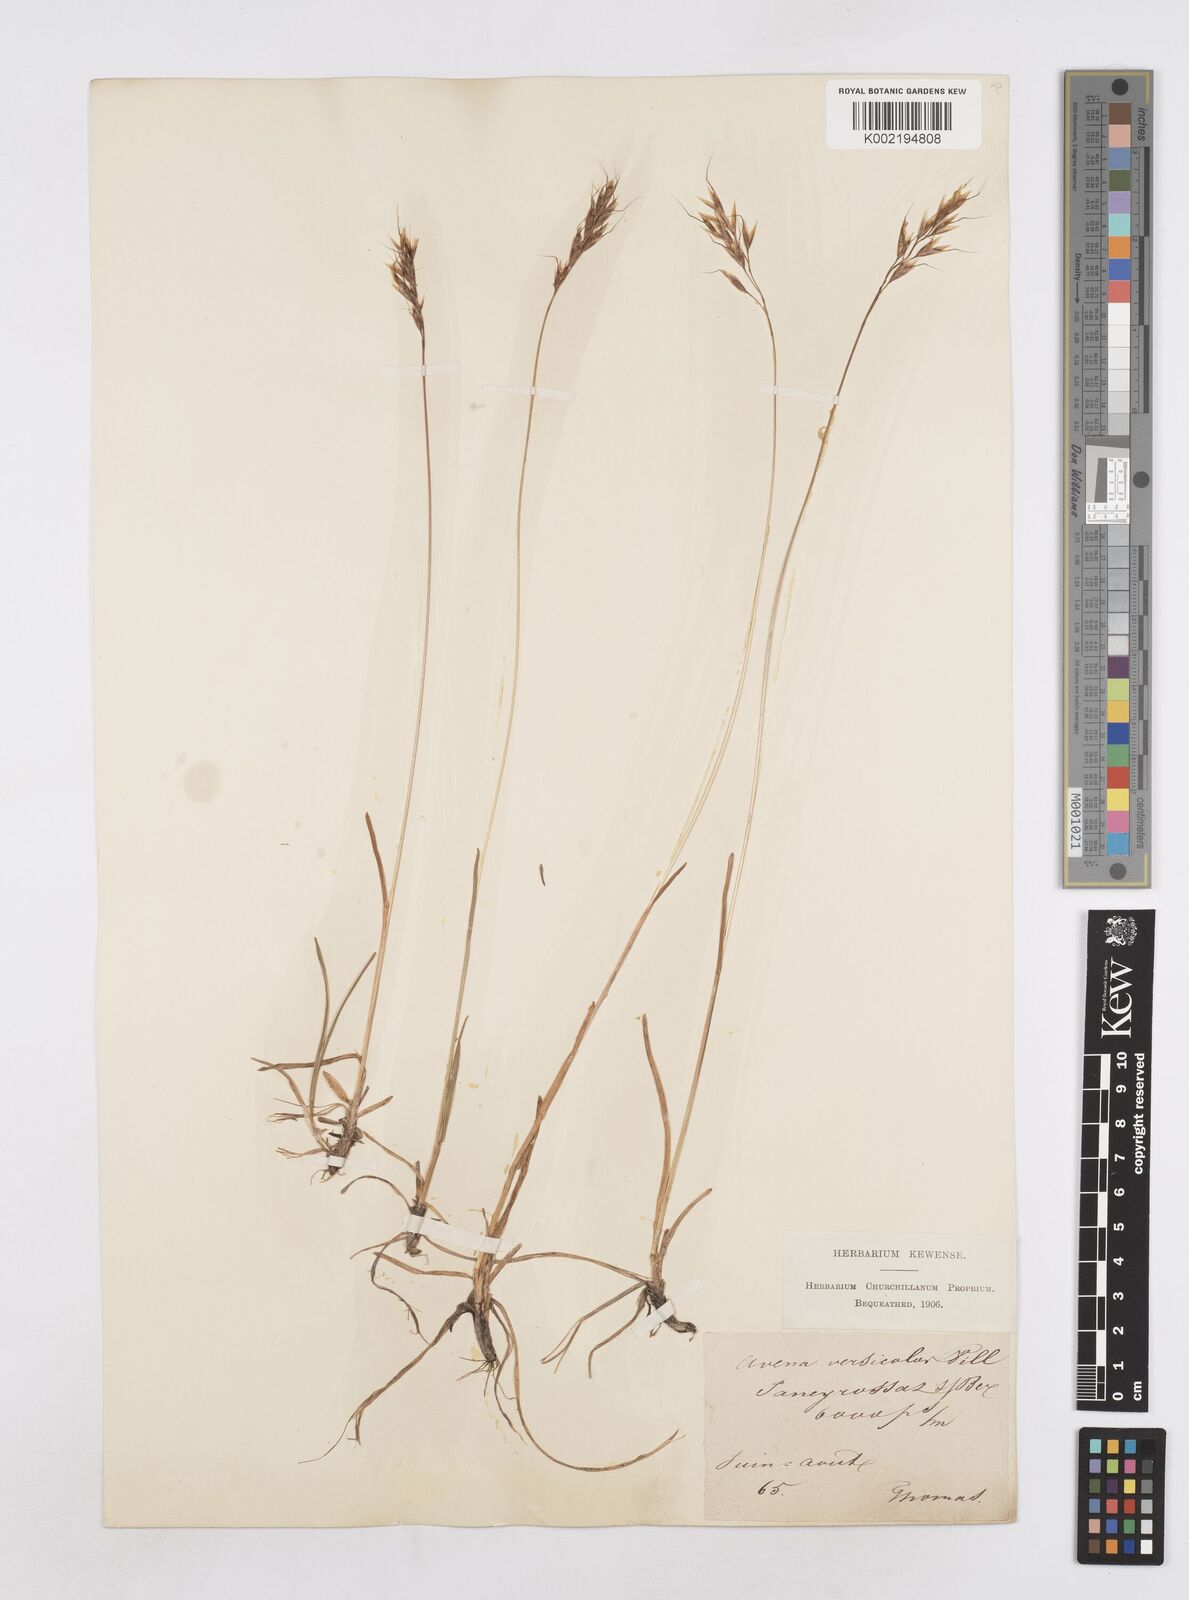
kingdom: Plantae
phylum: Tracheophyta
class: Liliopsida
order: Poales
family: Poaceae
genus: Helictochloa
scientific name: Helictochloa versicolor
